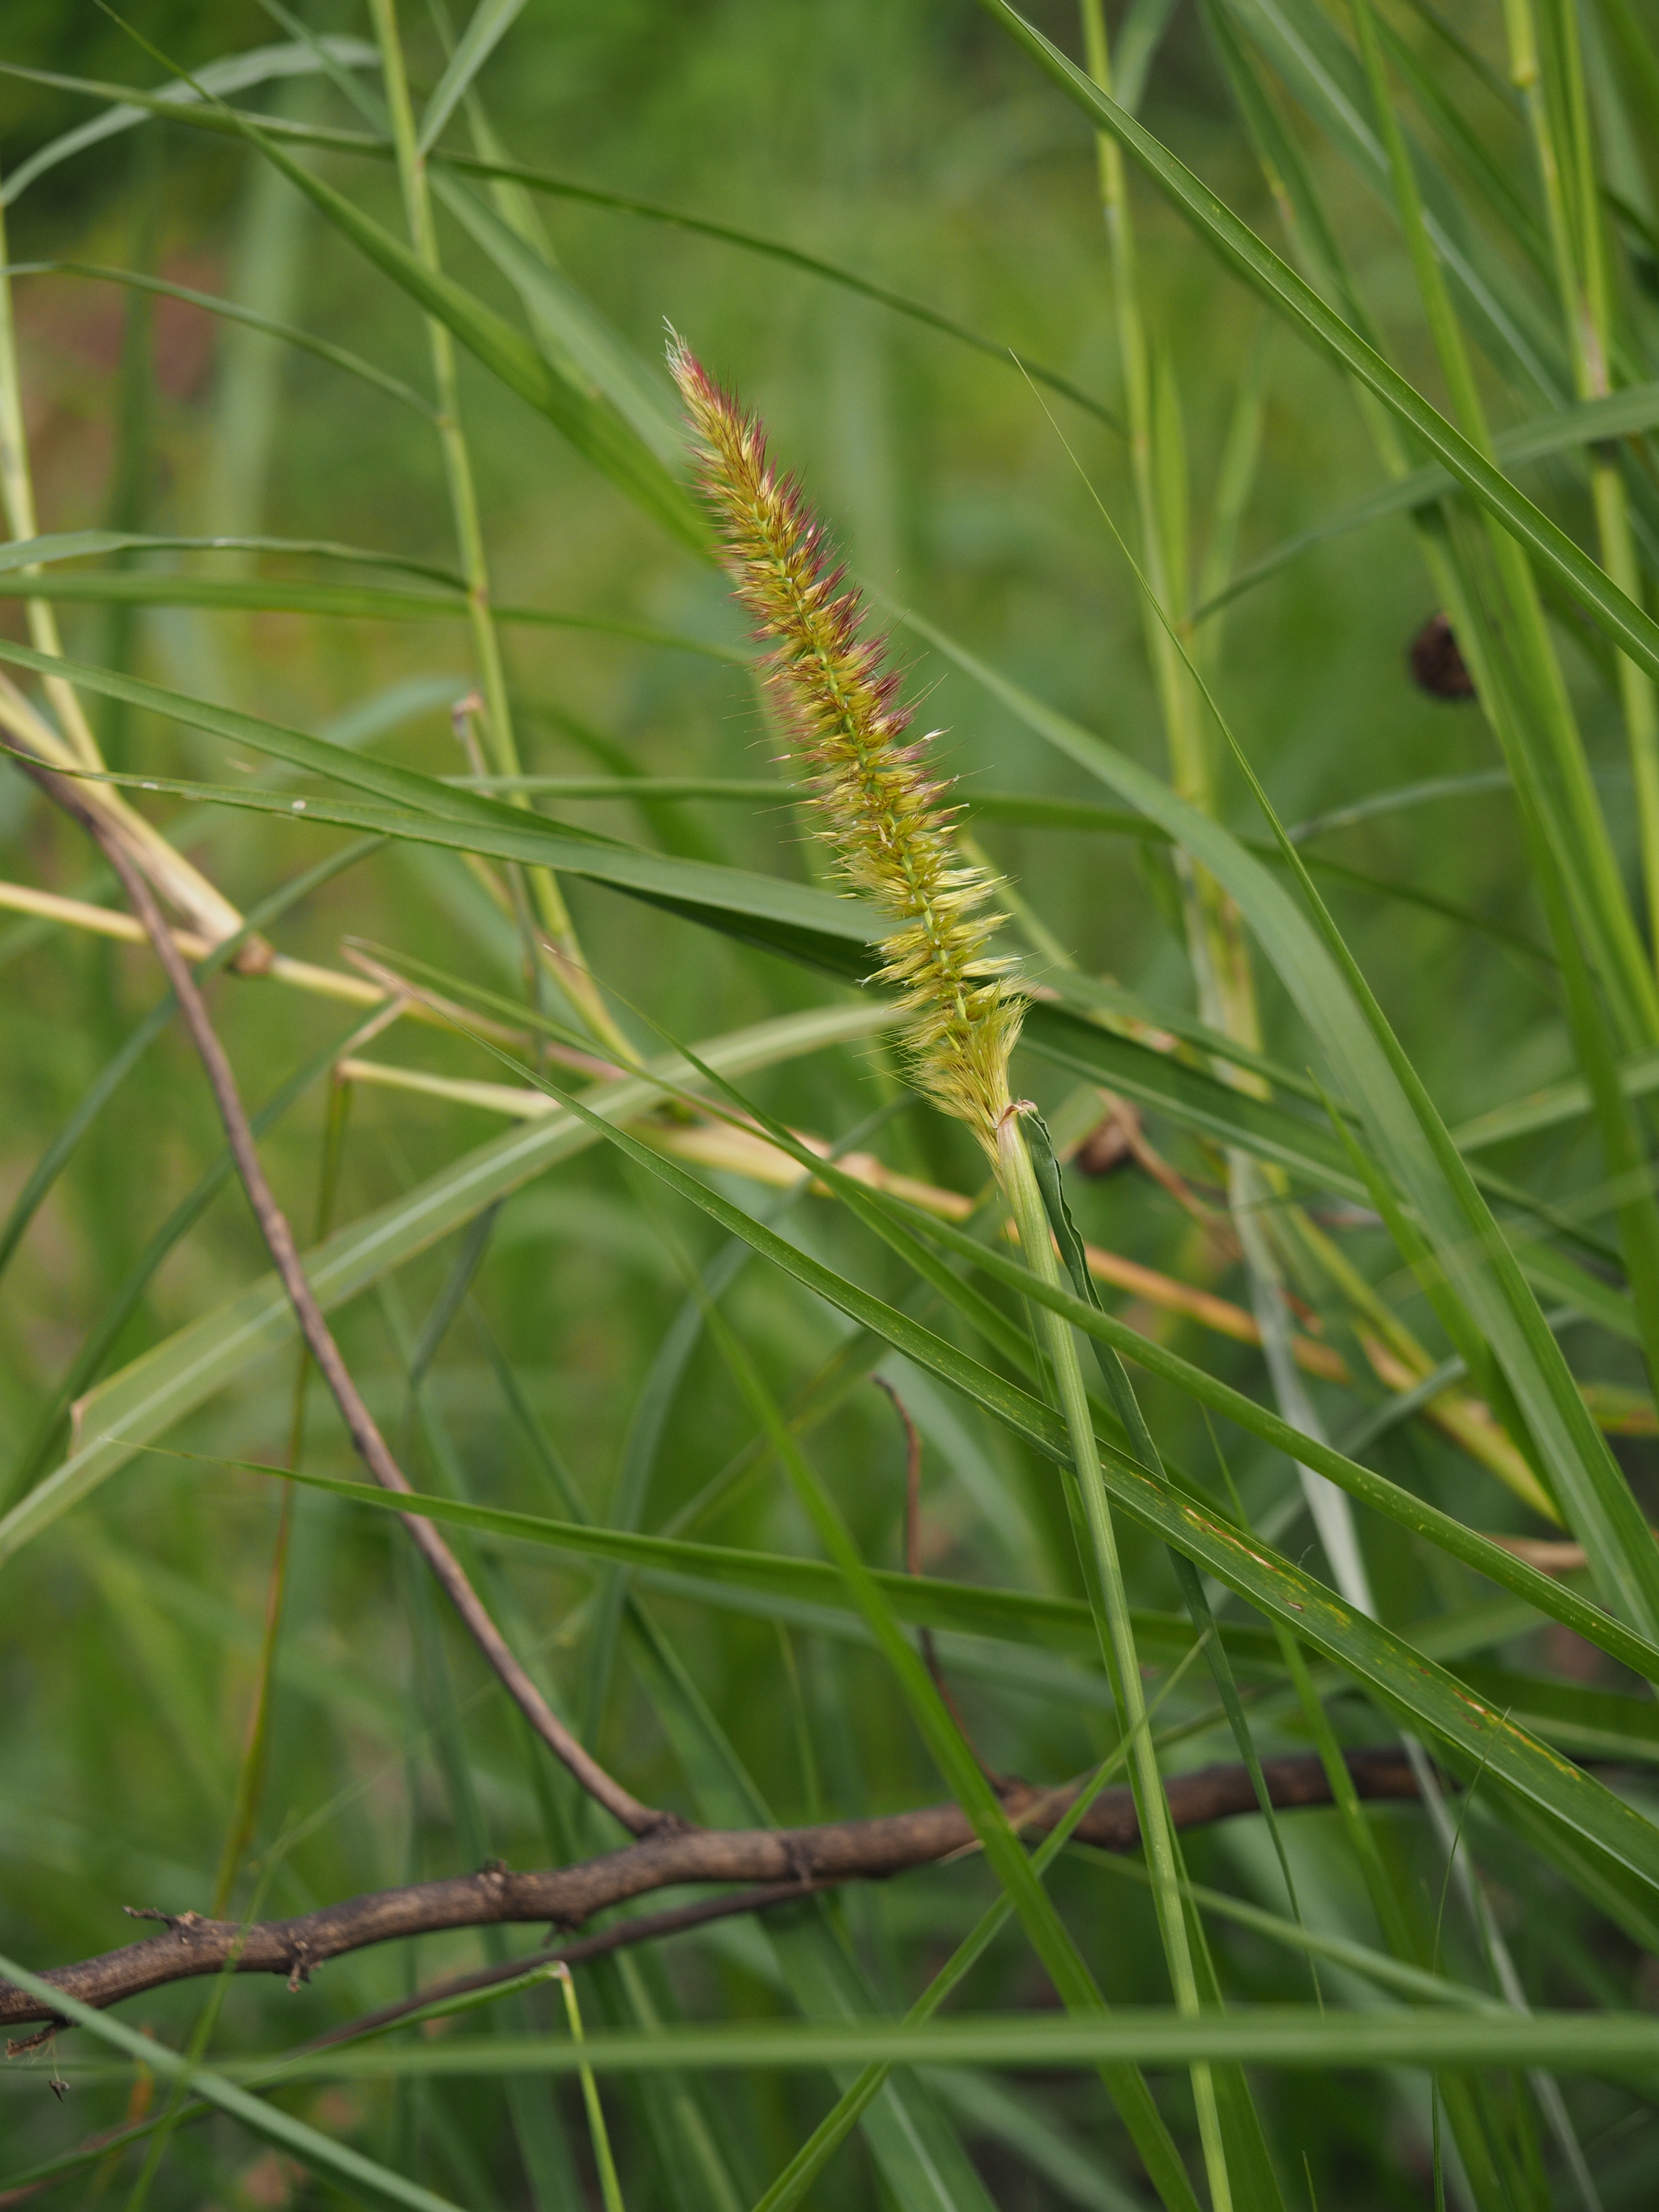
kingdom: Plantae
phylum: Tracheophyta
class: Liliopsida
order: Poales
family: Poaceae
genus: Cenchrus
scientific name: Cenchrus purpureus
